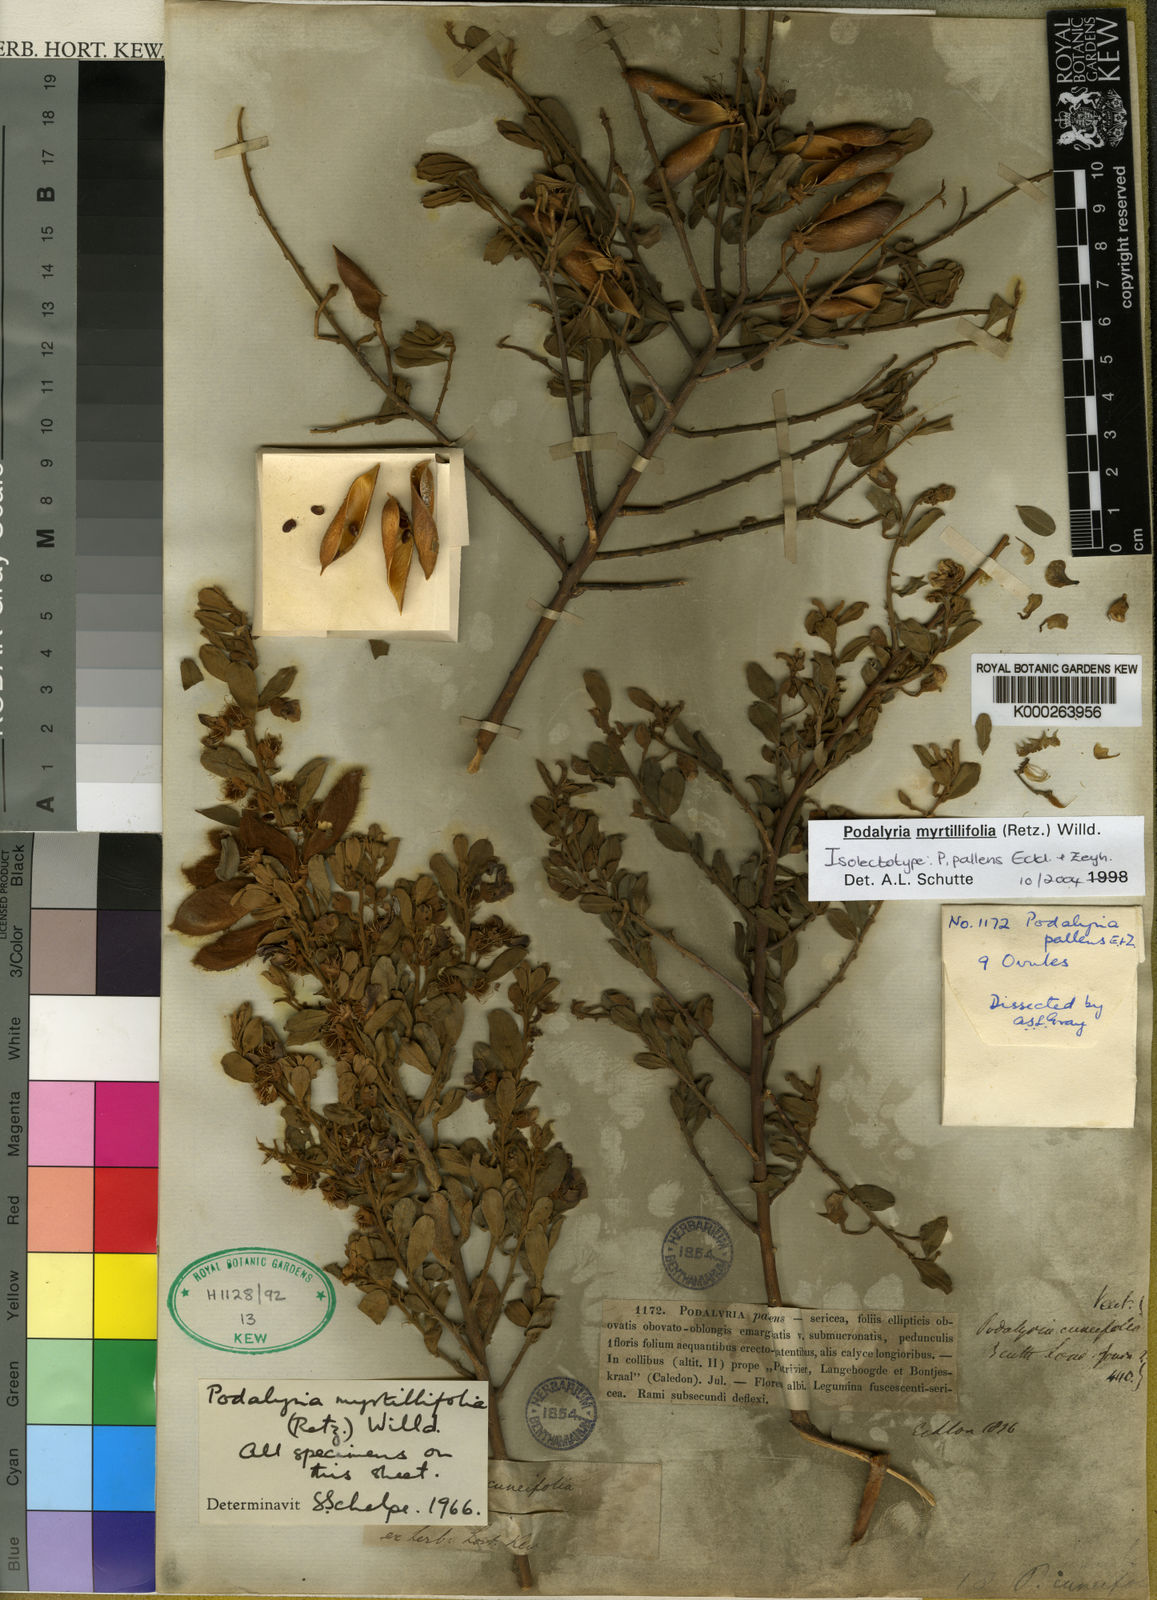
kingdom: Plantae
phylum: Tracheophyta
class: Magnoliopsida
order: Fabales
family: Fabaceae
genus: Podalyria
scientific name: Podalyria myrtillifolia
